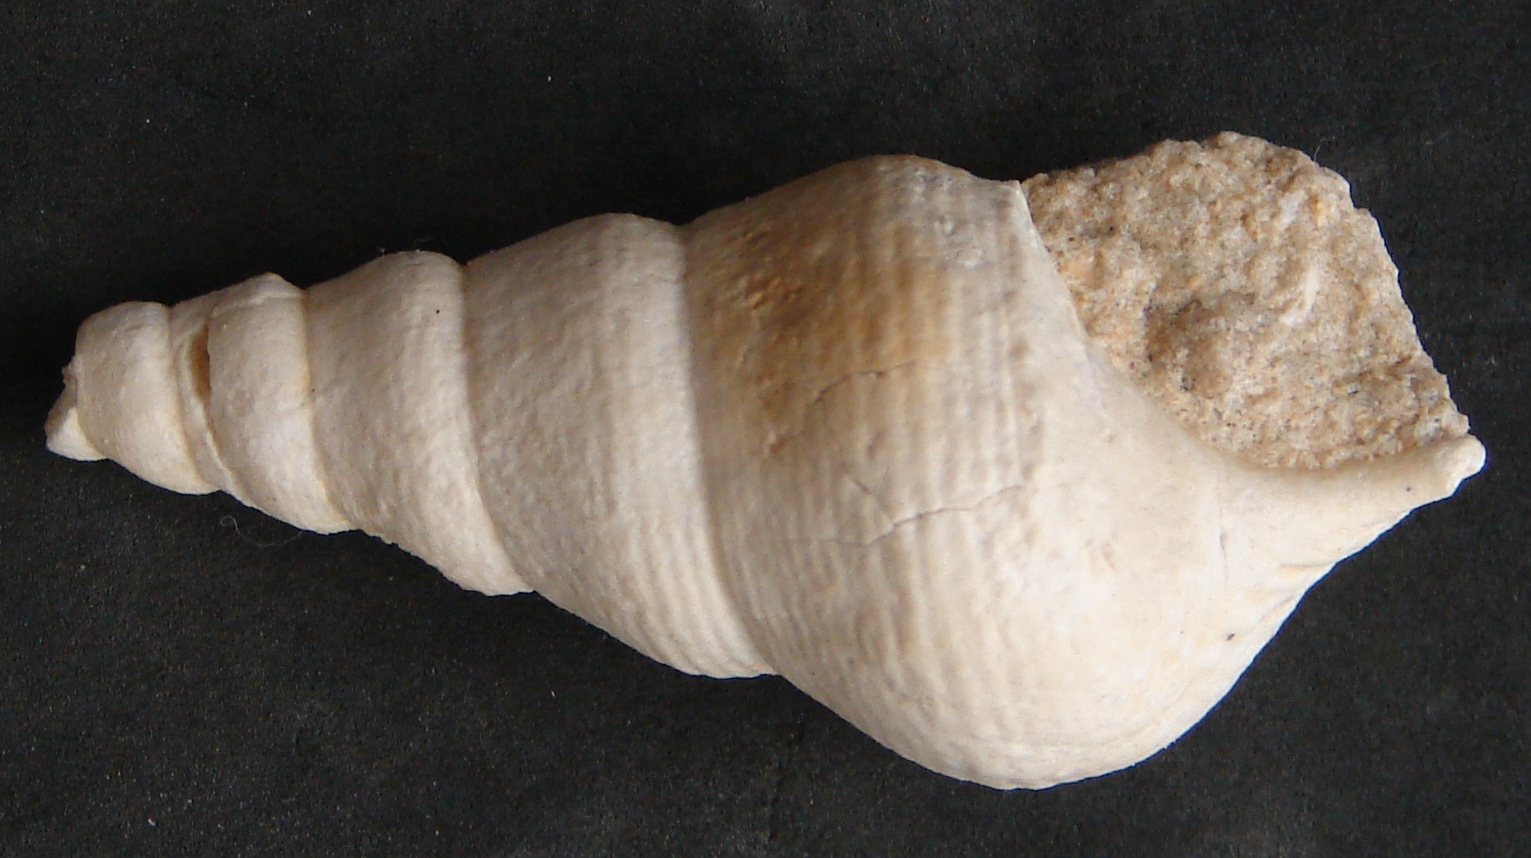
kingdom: Animalia
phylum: Mollusca
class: Gastropoda
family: Pseudomelaniidae
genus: Bourgetia
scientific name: Bourgetia
